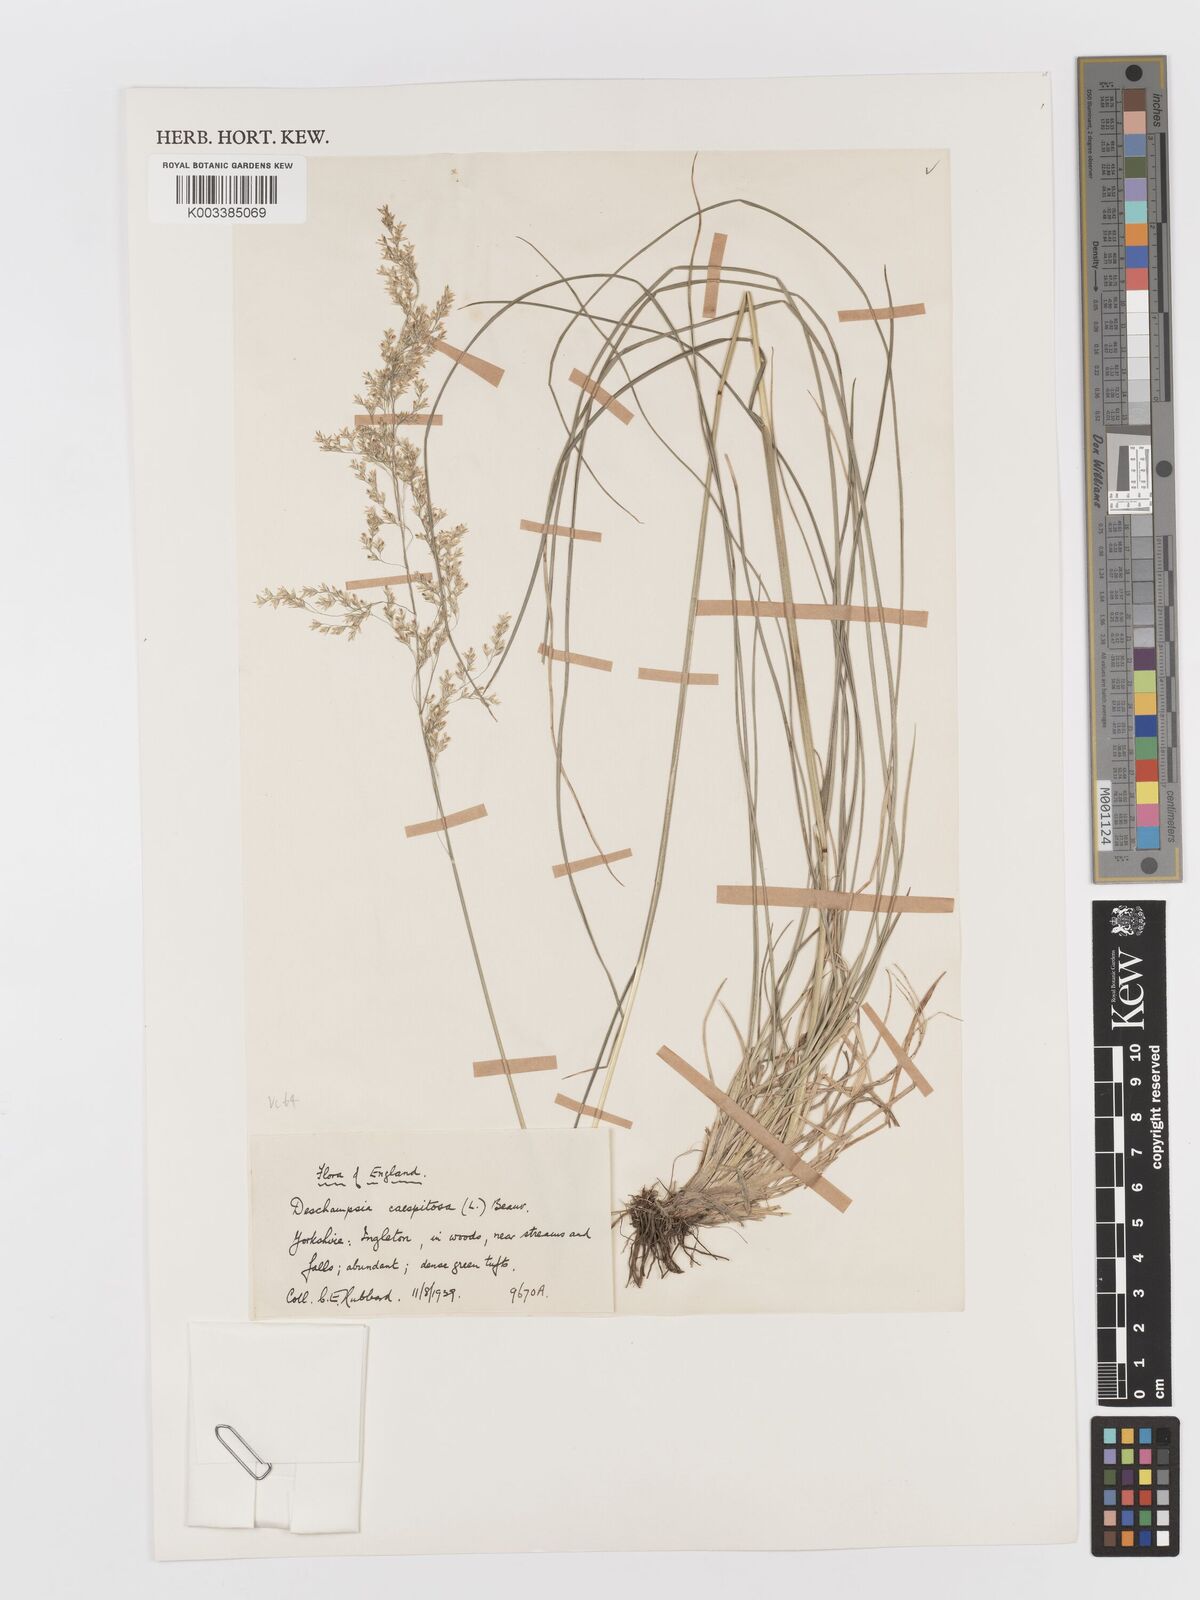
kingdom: Plantae
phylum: Tracheophyta
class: Liliopsida
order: Poales
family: Poaceae
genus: Deschampsia
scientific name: Deschampsia cespitosa
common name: Tufted hair-grass
